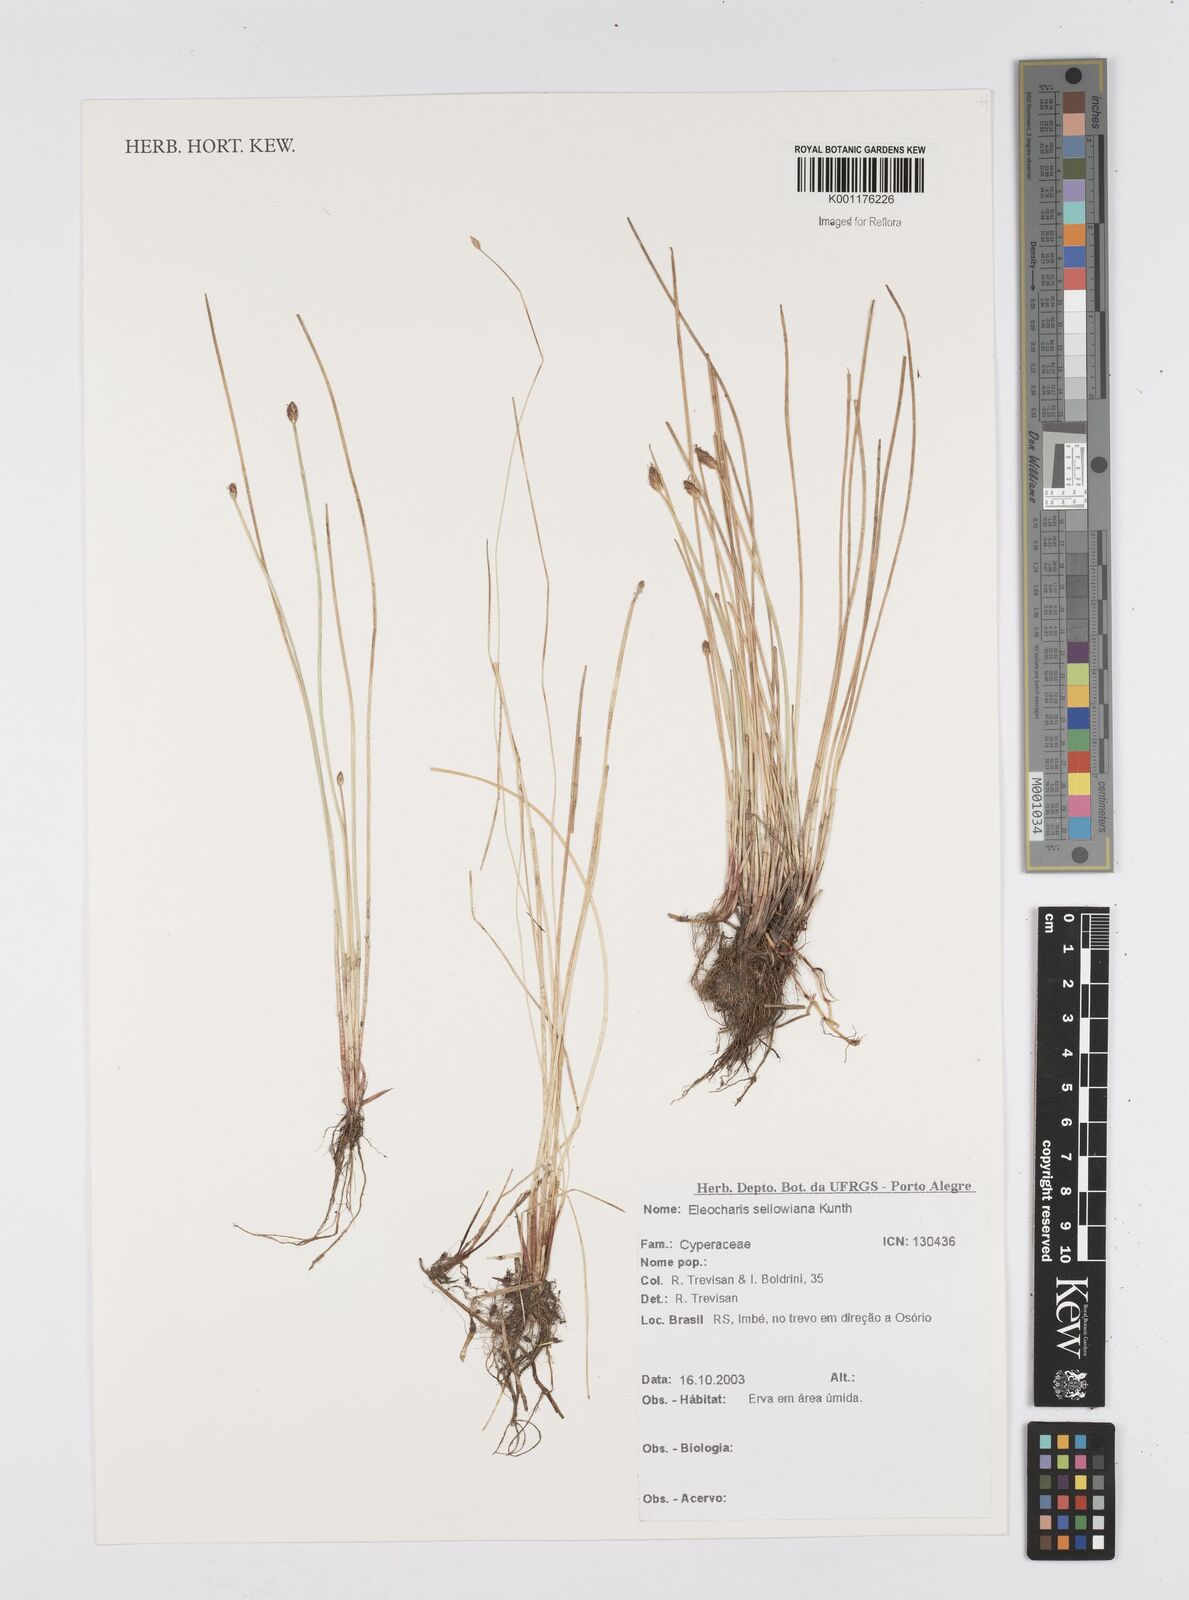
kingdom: Plantae
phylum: Tracheophyta
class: Liliopsida
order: Poales
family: Cyperaceae
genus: Eleocharis
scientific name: Eleocharis sellowiana
